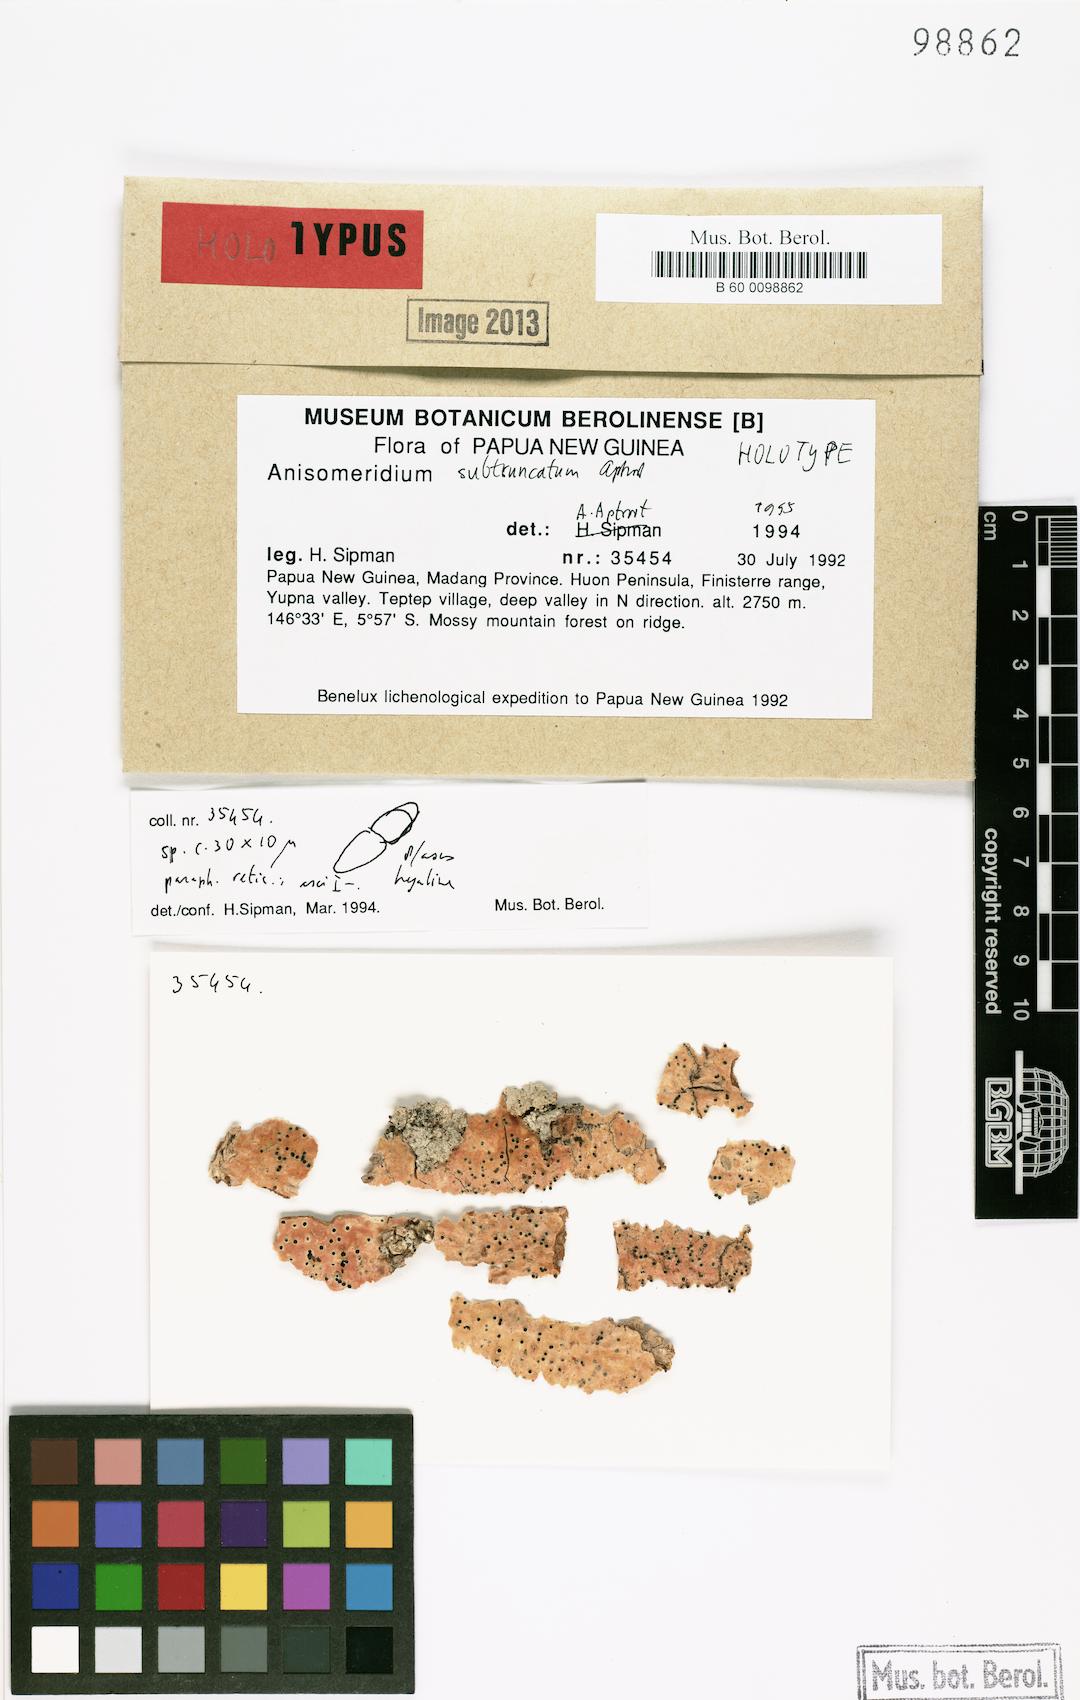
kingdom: Fungi
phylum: Ascomycota
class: Dothideomycetes
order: Monoblastiales
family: Monoblastiaceae
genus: Anisomeridium
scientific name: Anisomeridium
